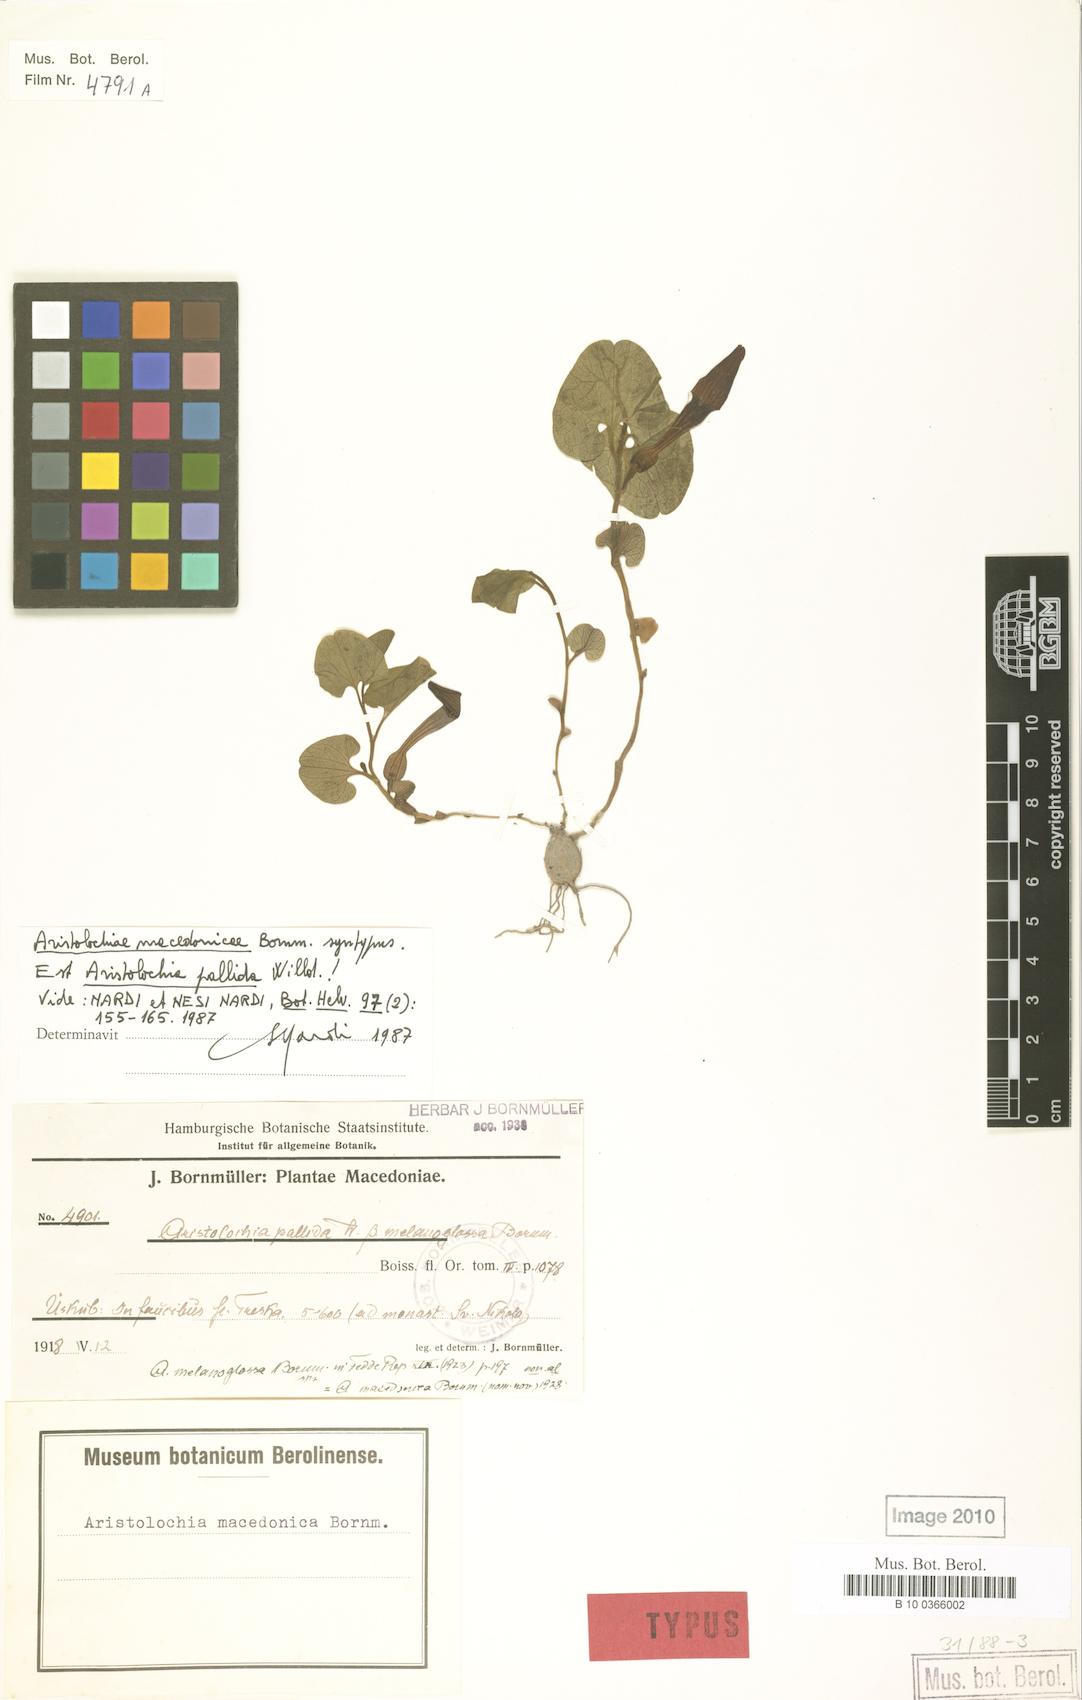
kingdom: Plantae
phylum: Tracheophyta
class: Magnoliopsida
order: Piperales
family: Aristolochiaceae
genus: Aristolochia
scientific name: Aristolochia pallida
